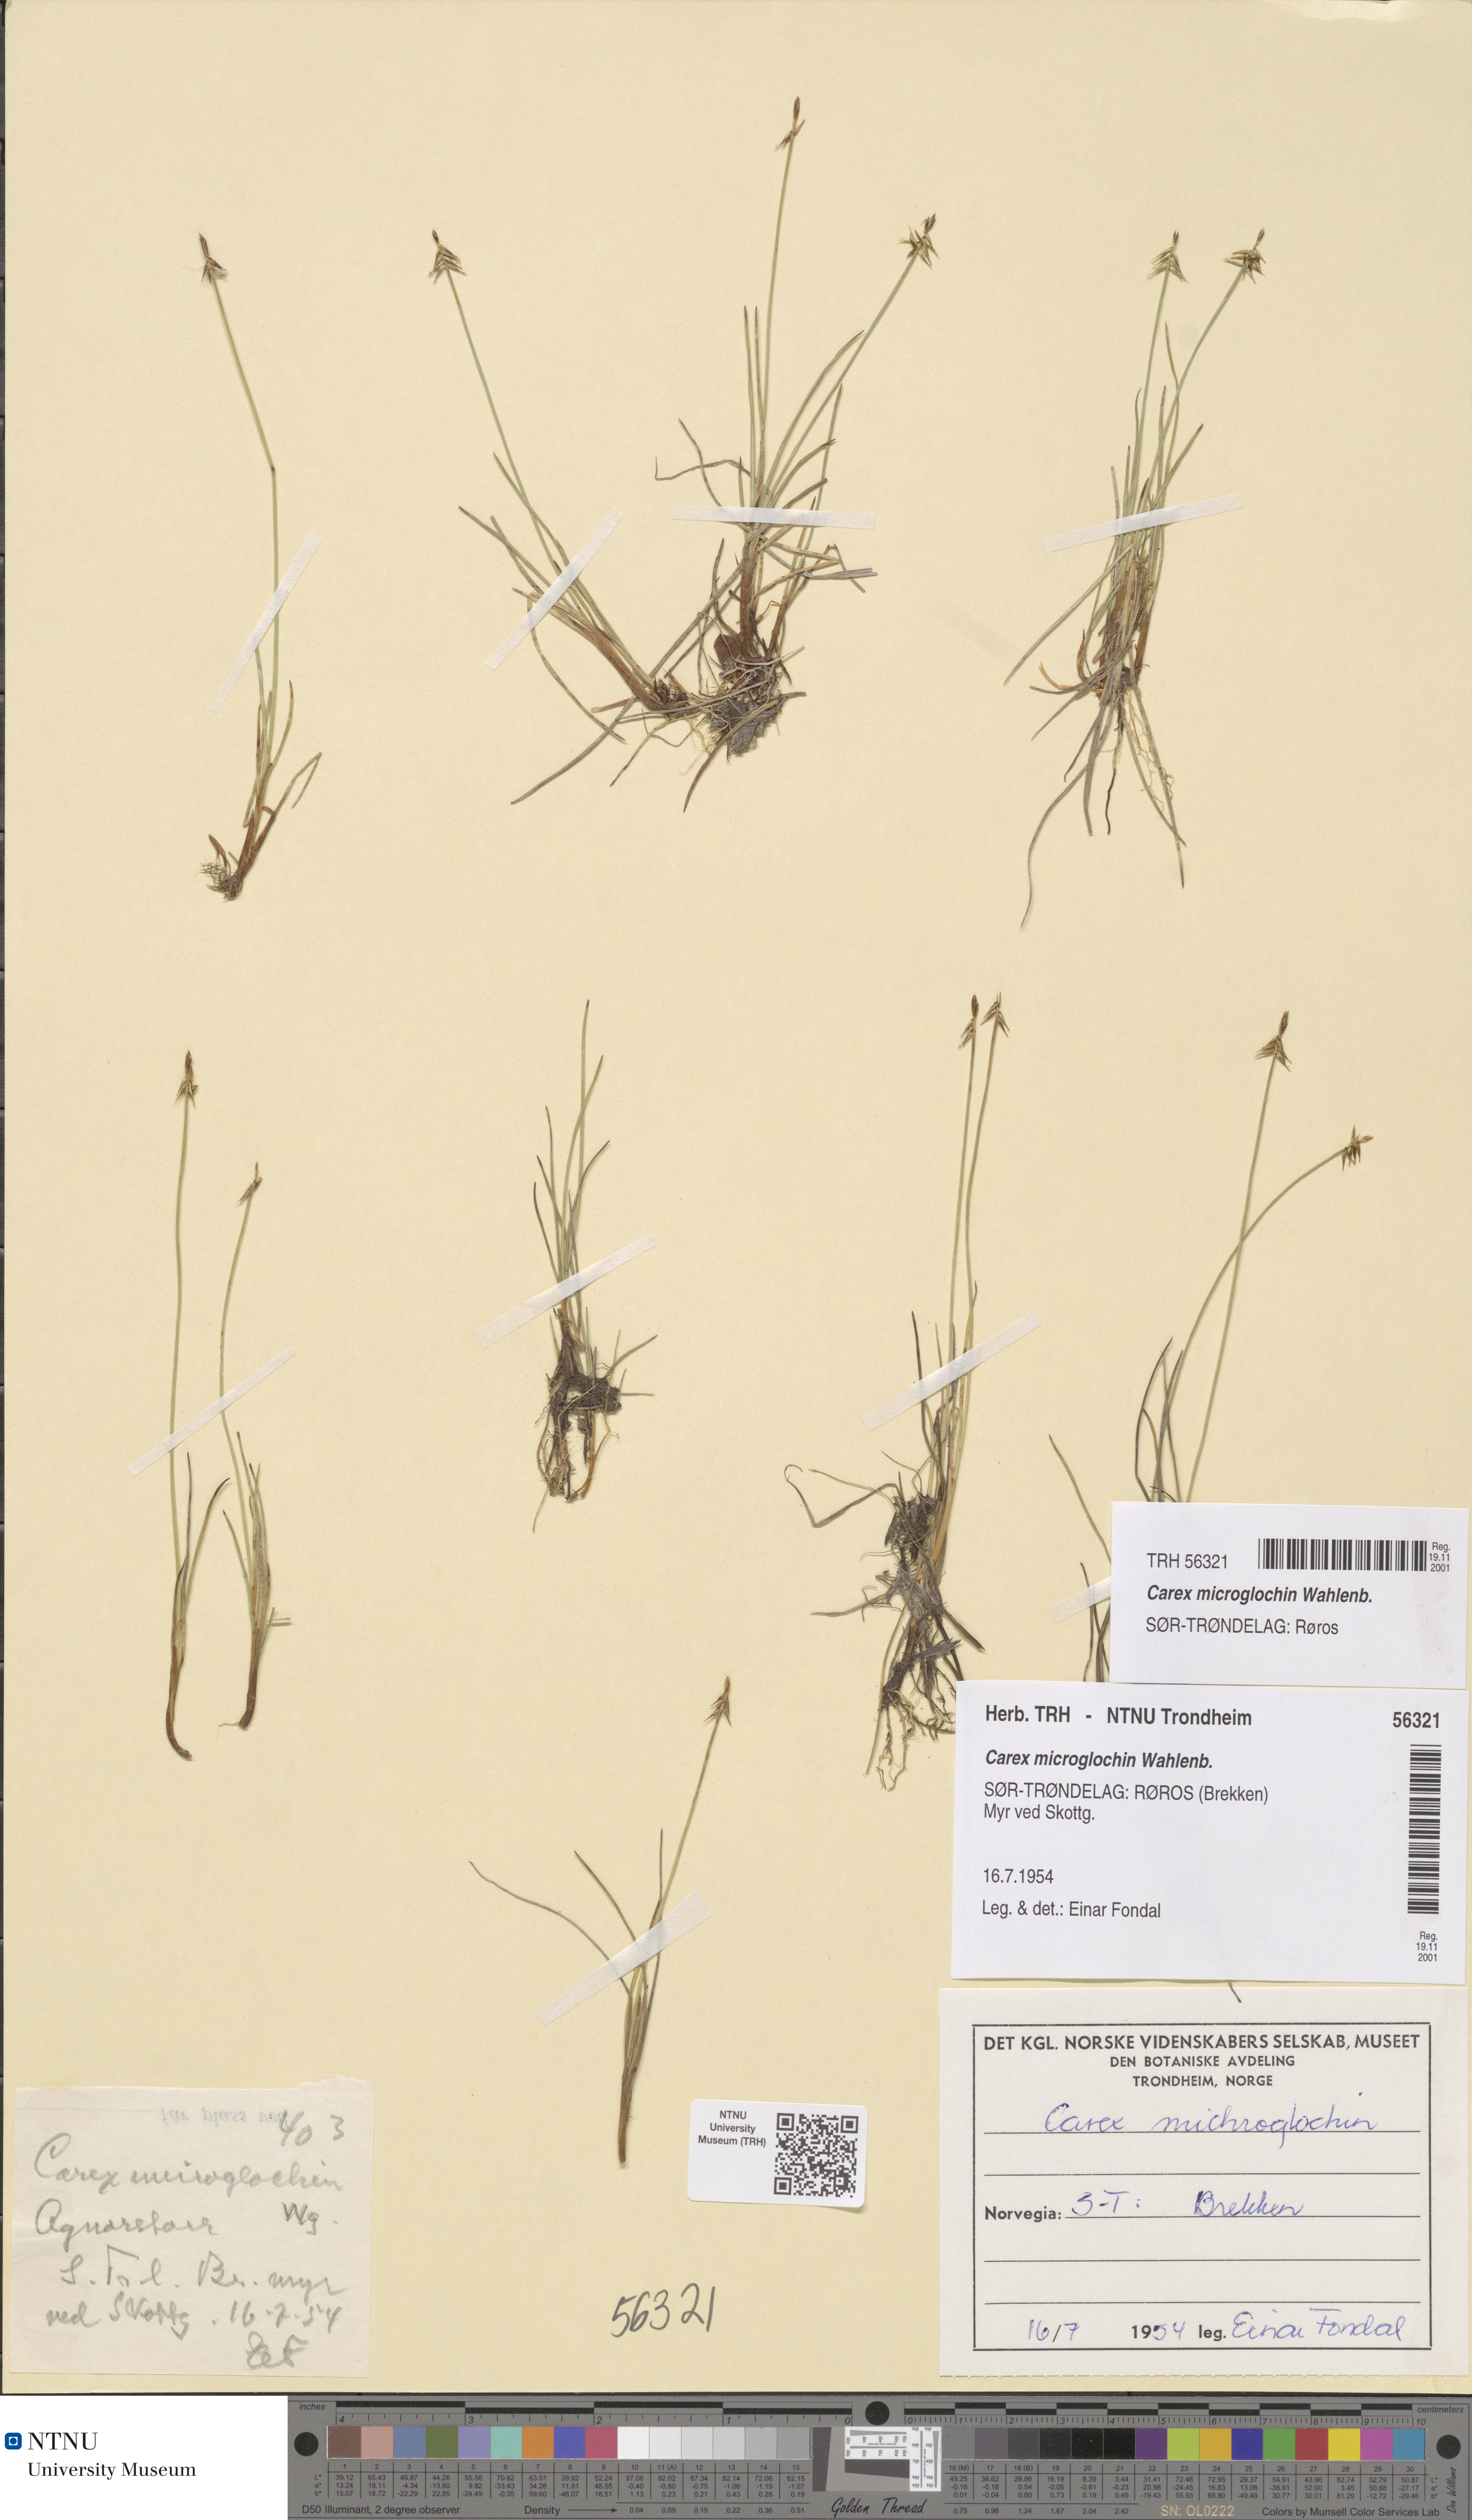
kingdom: Plantae
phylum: Tracheophyta
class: Liliopsida
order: Poales
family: Cyperaceae
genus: Carex
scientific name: Carex microglochin
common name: Bristle sedge
